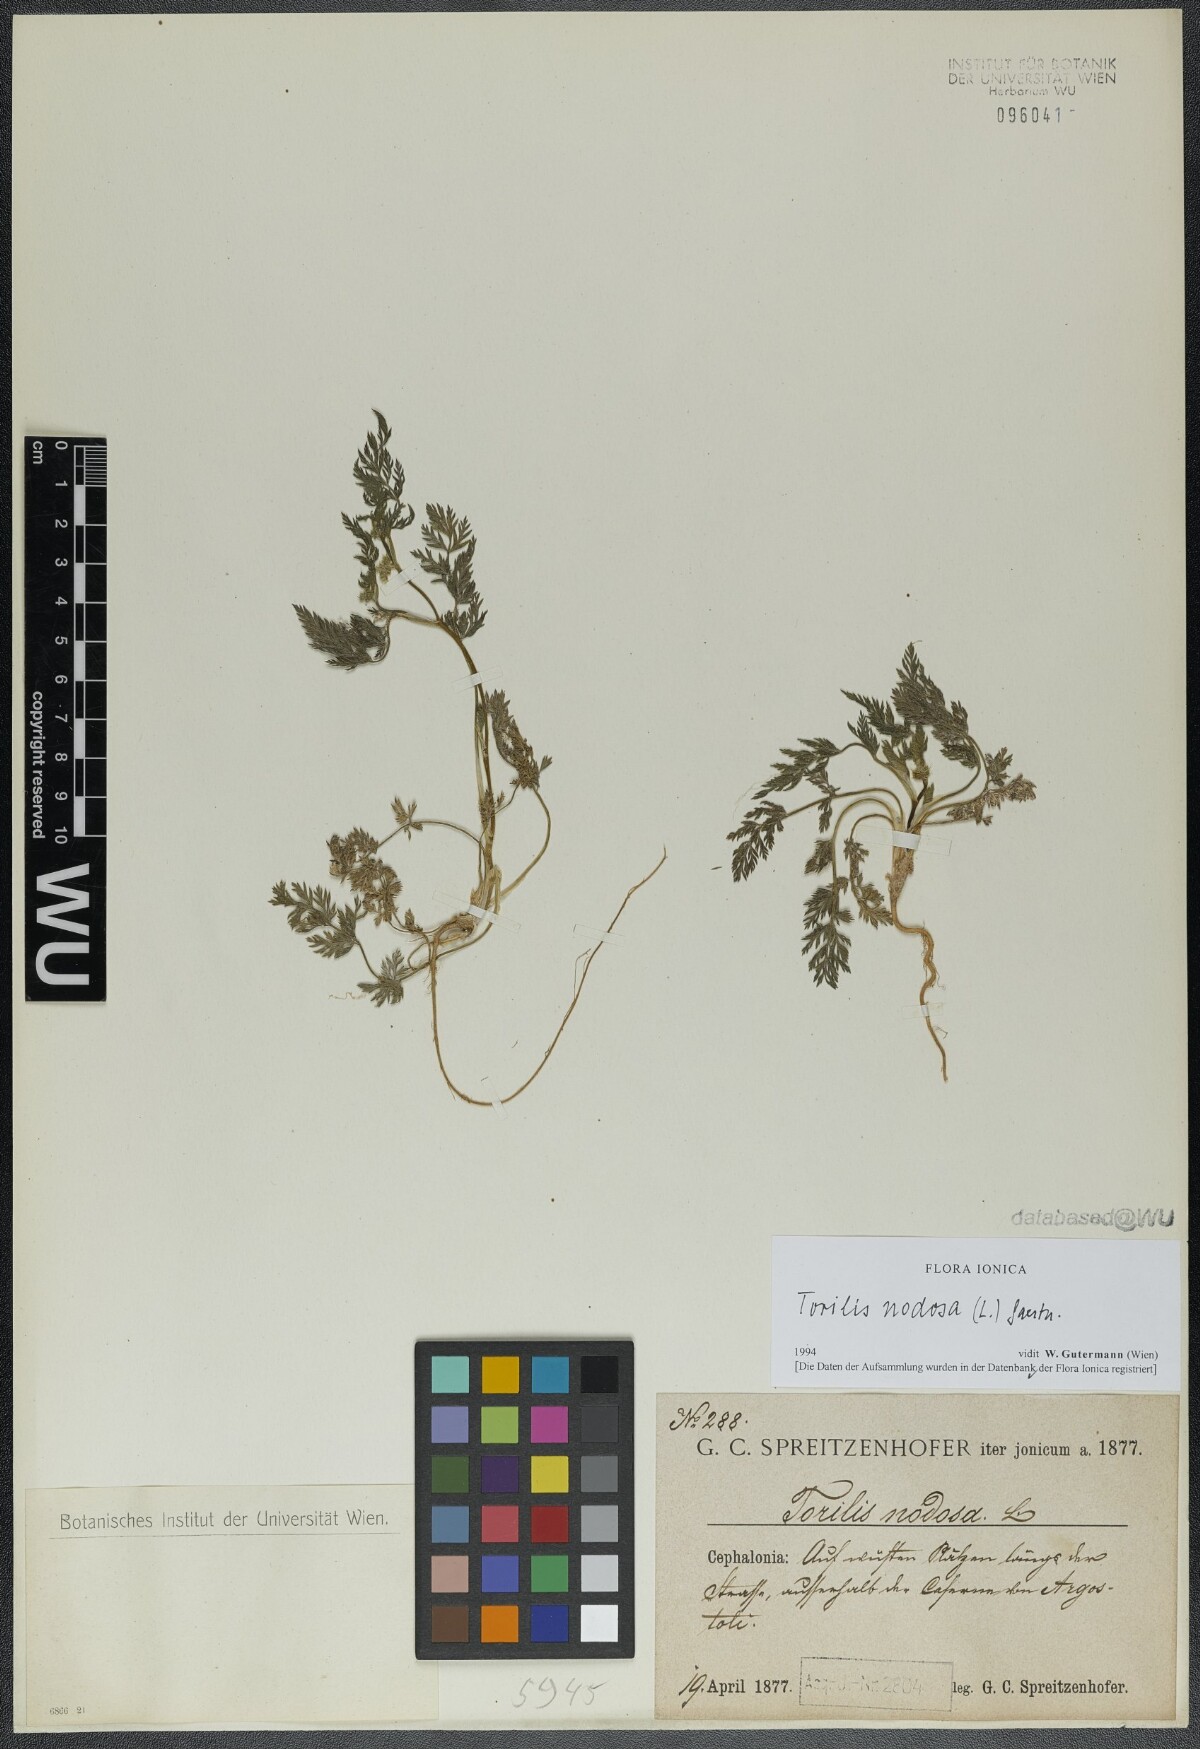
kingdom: Plantae
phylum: Tracheophyta
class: Magnoliopsida
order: Apiales
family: Apiaceae
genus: Torilis
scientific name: Torilis nodosa
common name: Knotted hedge-parsley
